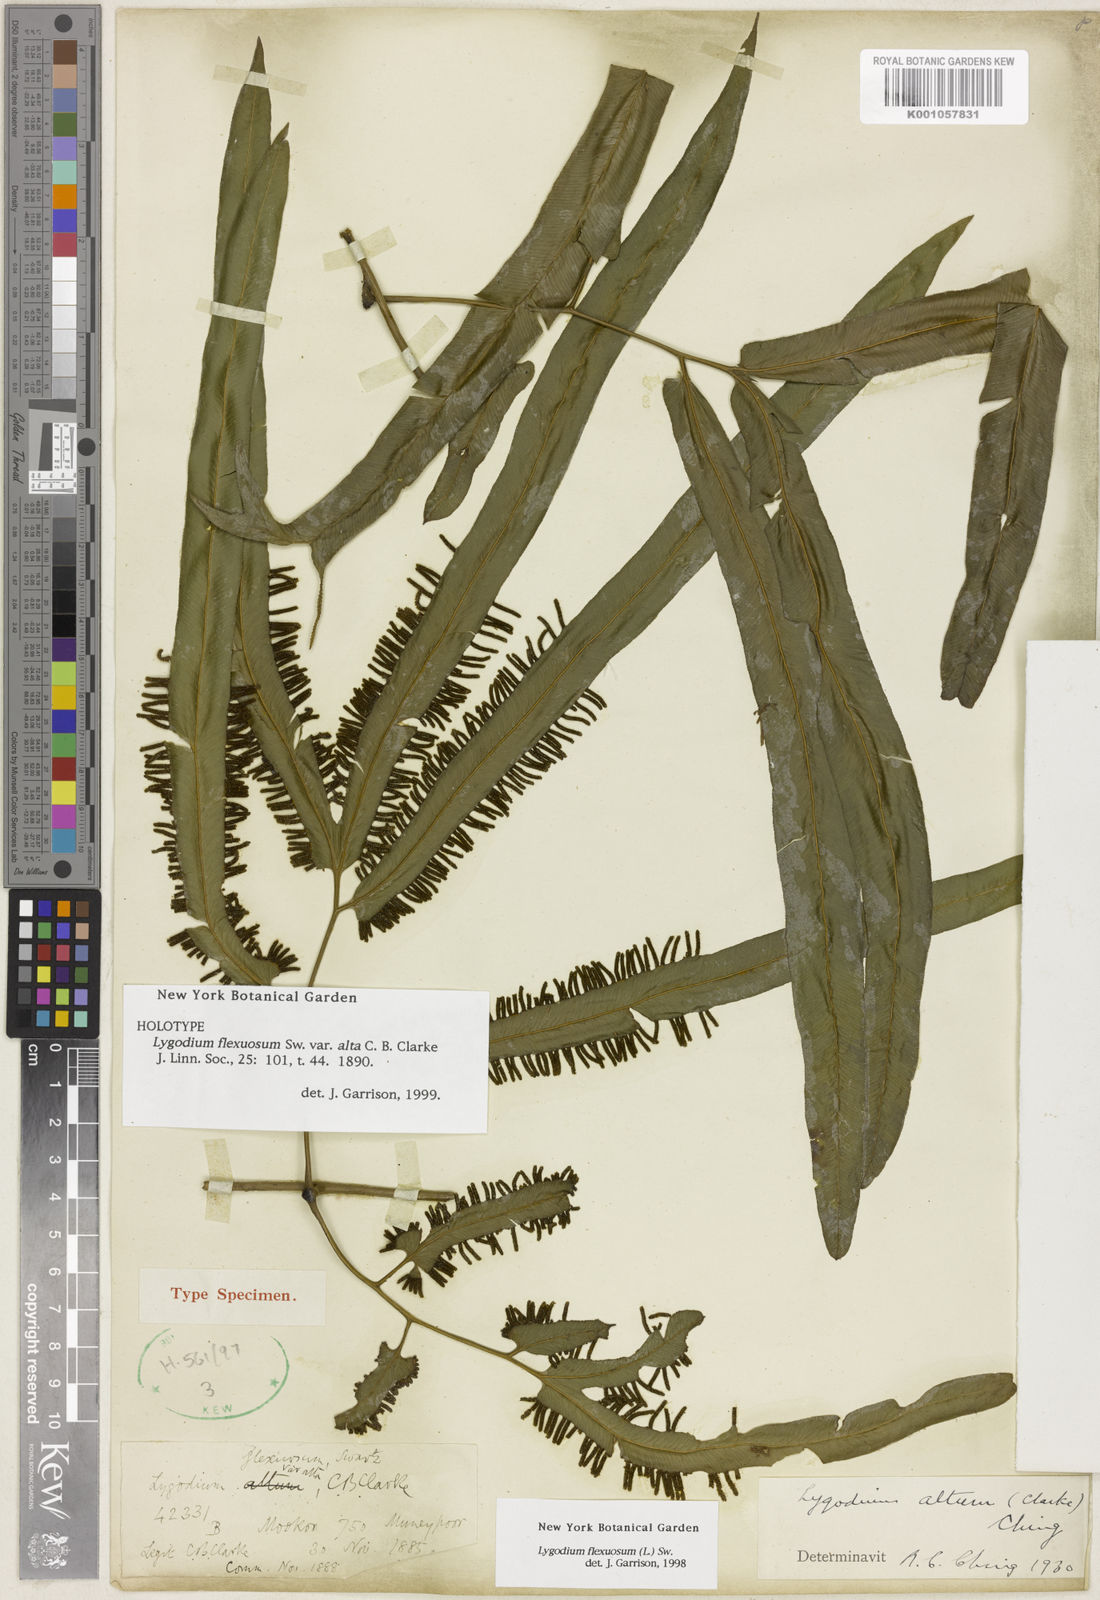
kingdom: Plantae
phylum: Tracheophyta
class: Polypodiopsida
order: Schizaeales
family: Lygodiaceae
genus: Lygodium
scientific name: Lygodium flexuosum
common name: Maidenhair creeper
